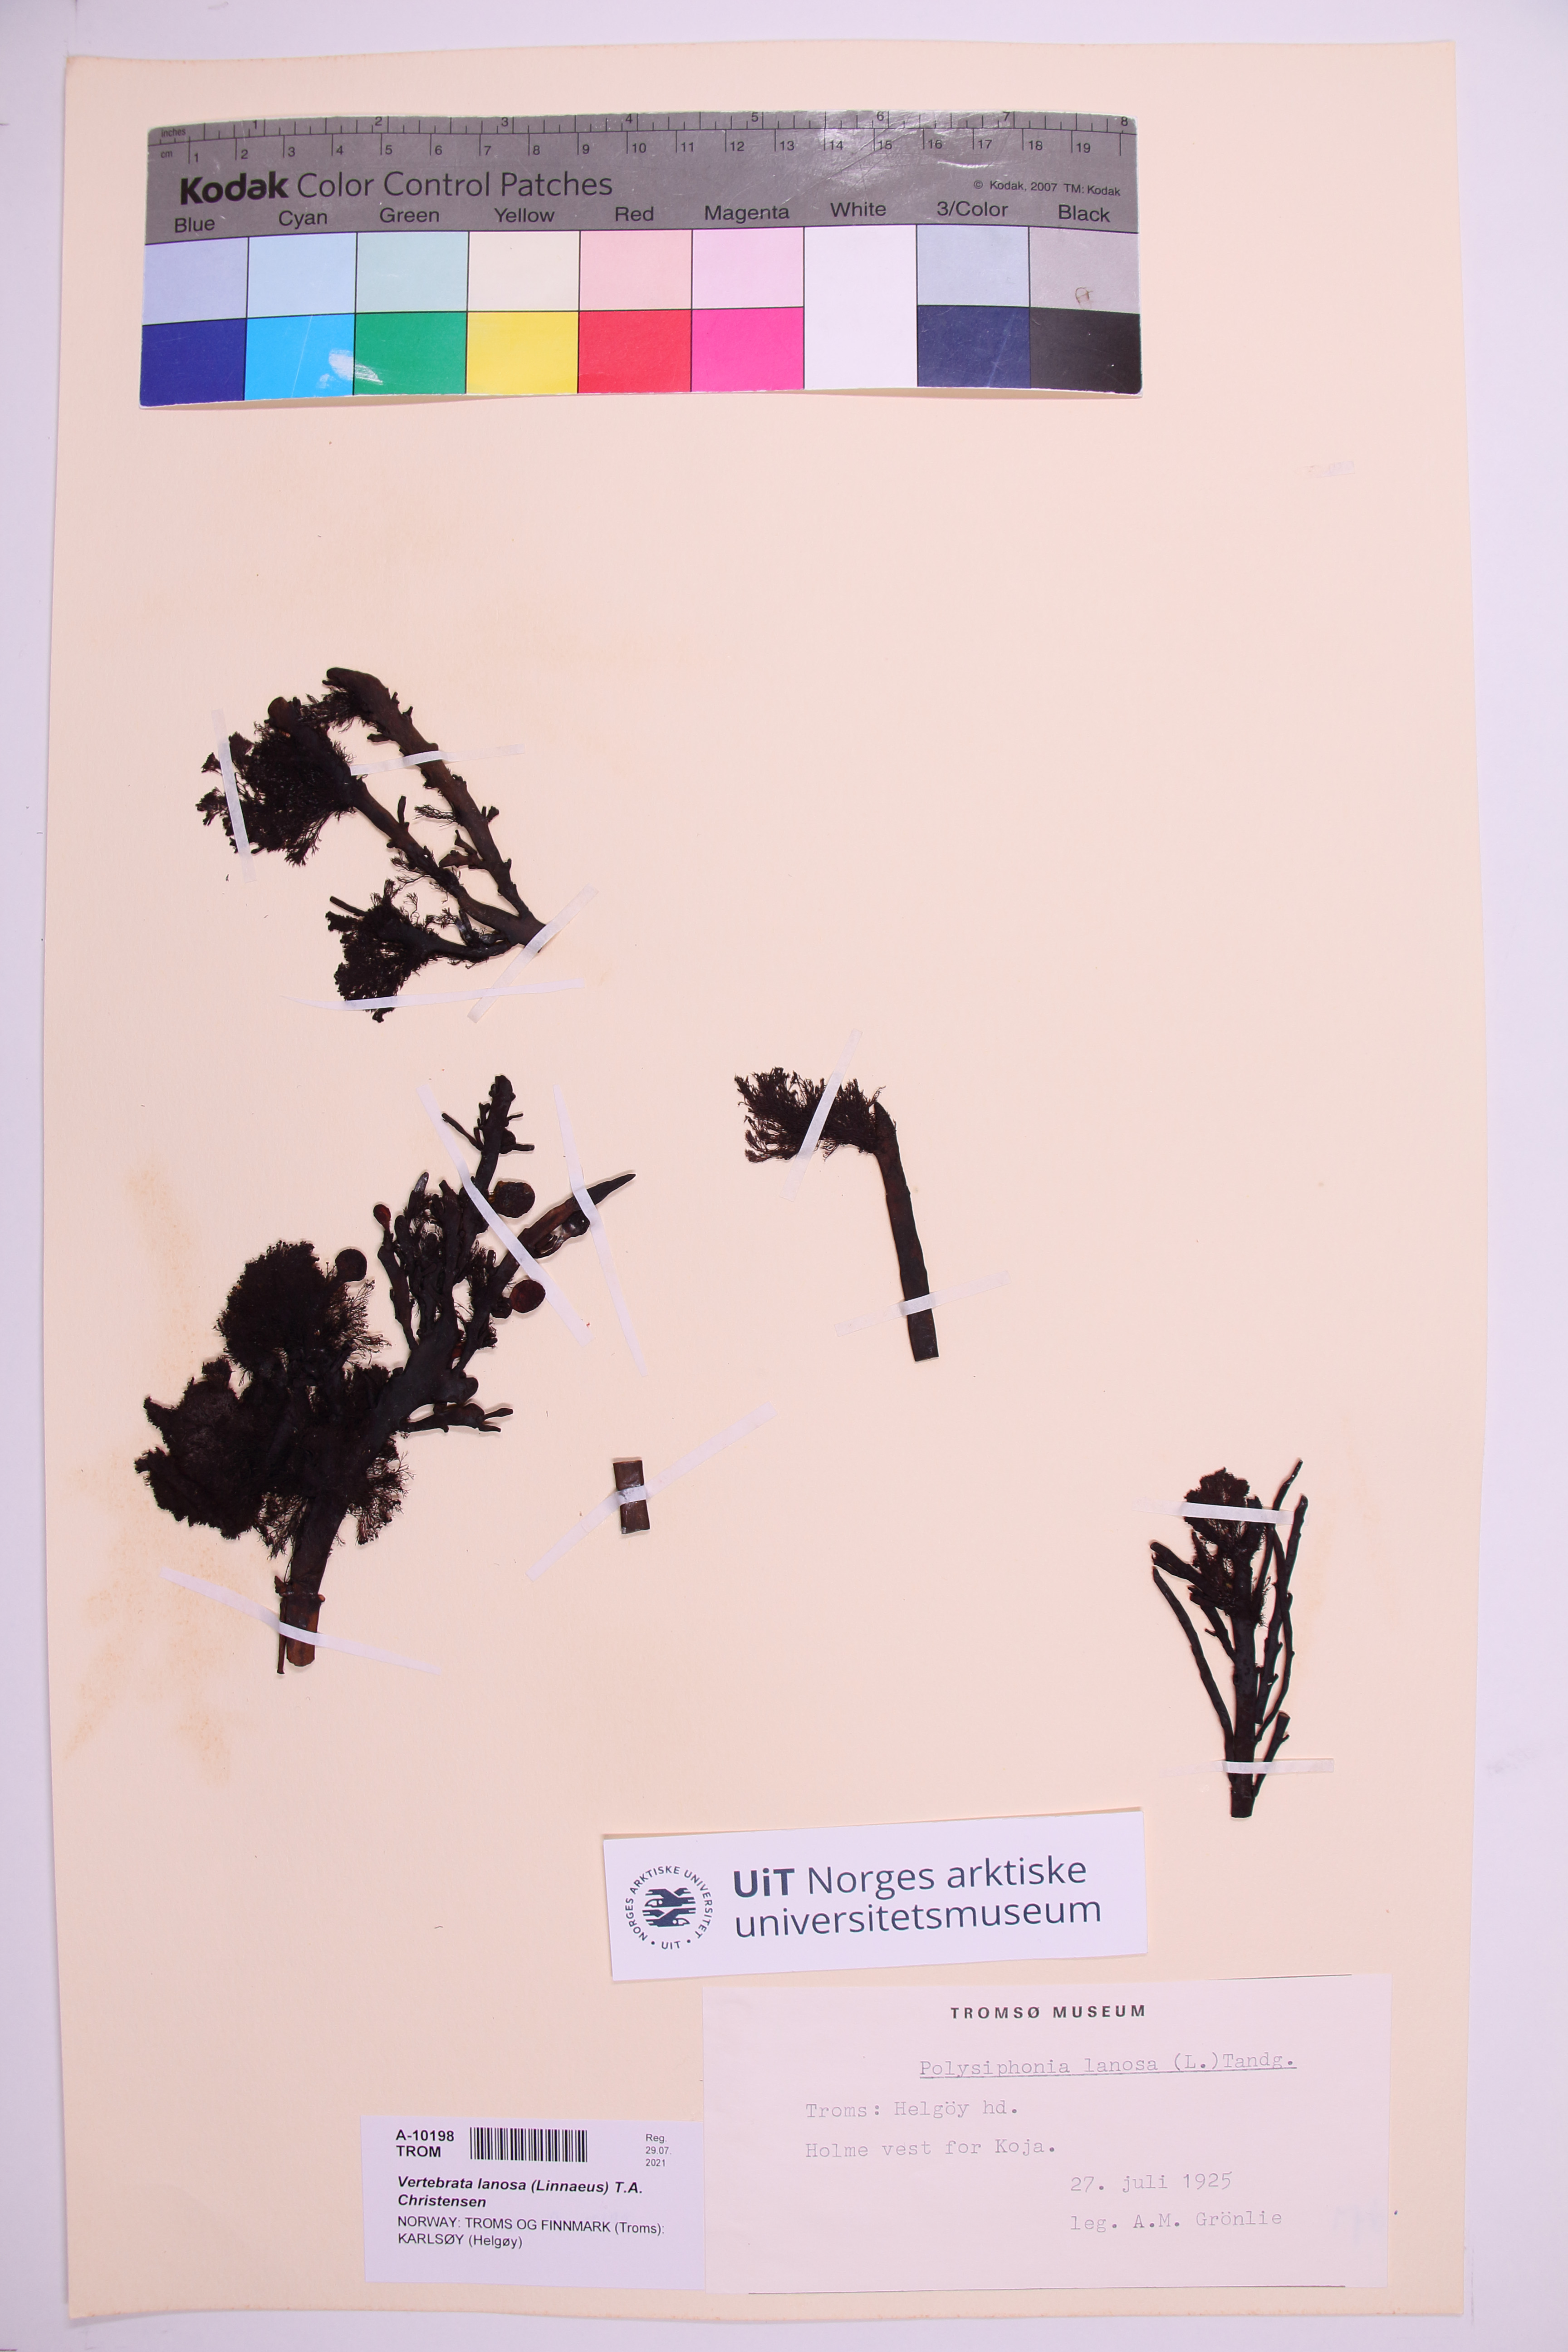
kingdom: Plantae
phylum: Rhodophyta
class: Florideophyceae
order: Ceramiales
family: Rhodomelaceae
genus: Vertebrata
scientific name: Vertebrata lanosa
